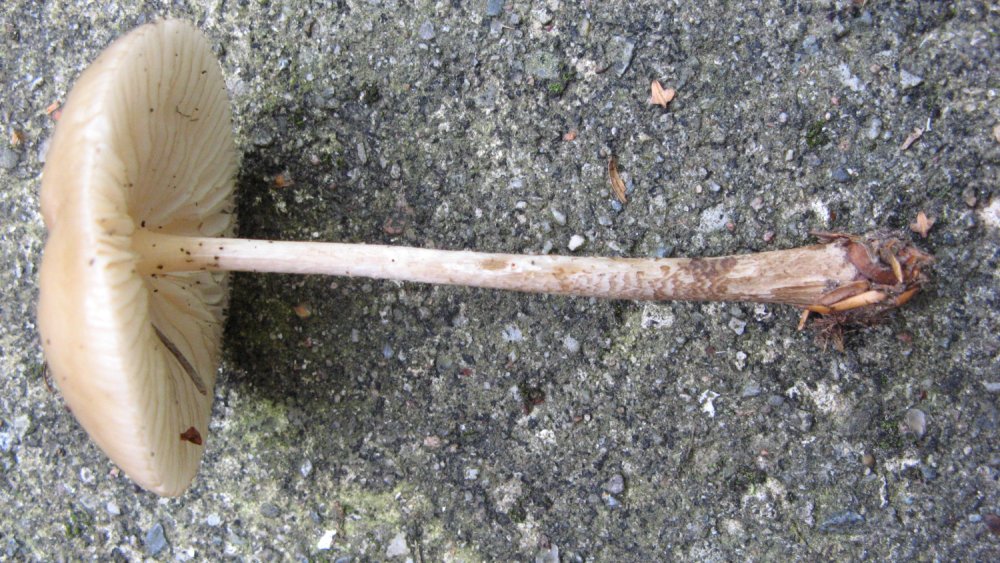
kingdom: Fungi
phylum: Basidiomycota
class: Agaricomycetes
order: Agaricales
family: Physalacriaceae
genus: Hymenopellis
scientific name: Hymenopellis radicata
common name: almindelig pælerodshat
